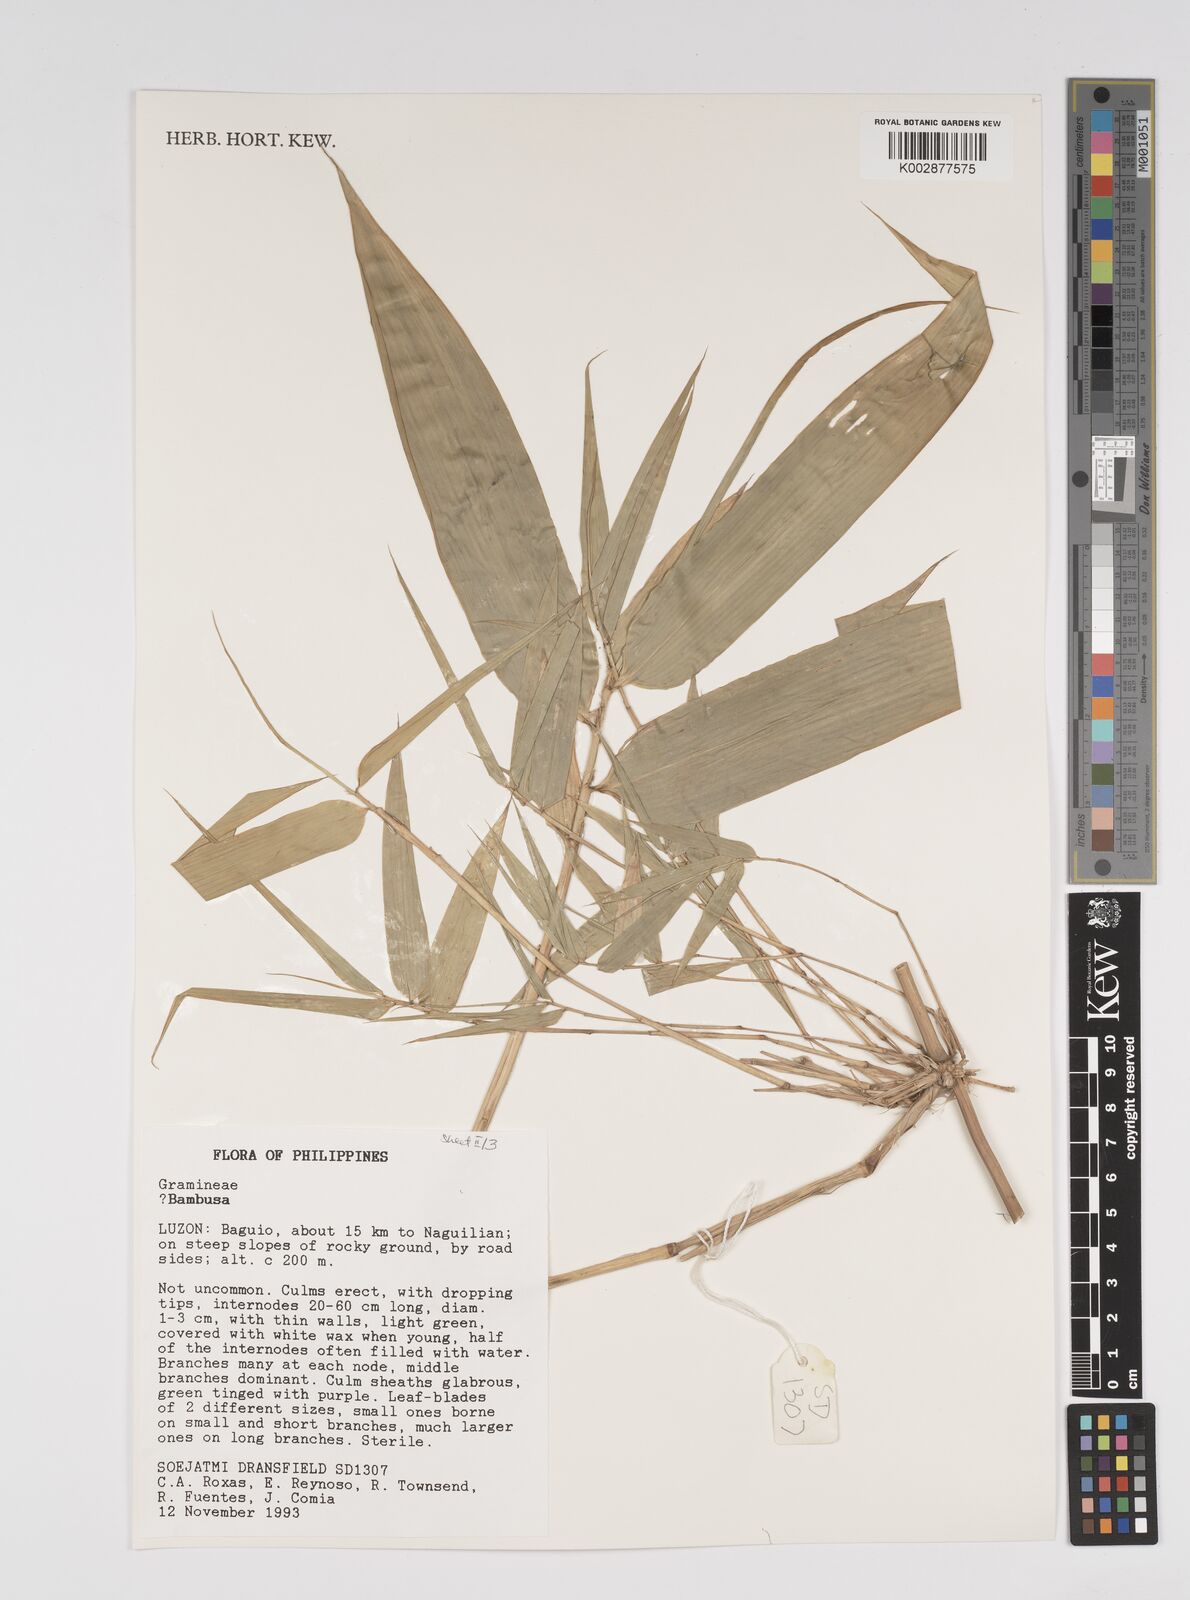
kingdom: Plantae
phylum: Tracheophyta
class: Liliopsida
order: Poales
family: Poaceae
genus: Bambusa
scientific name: Bambusa
